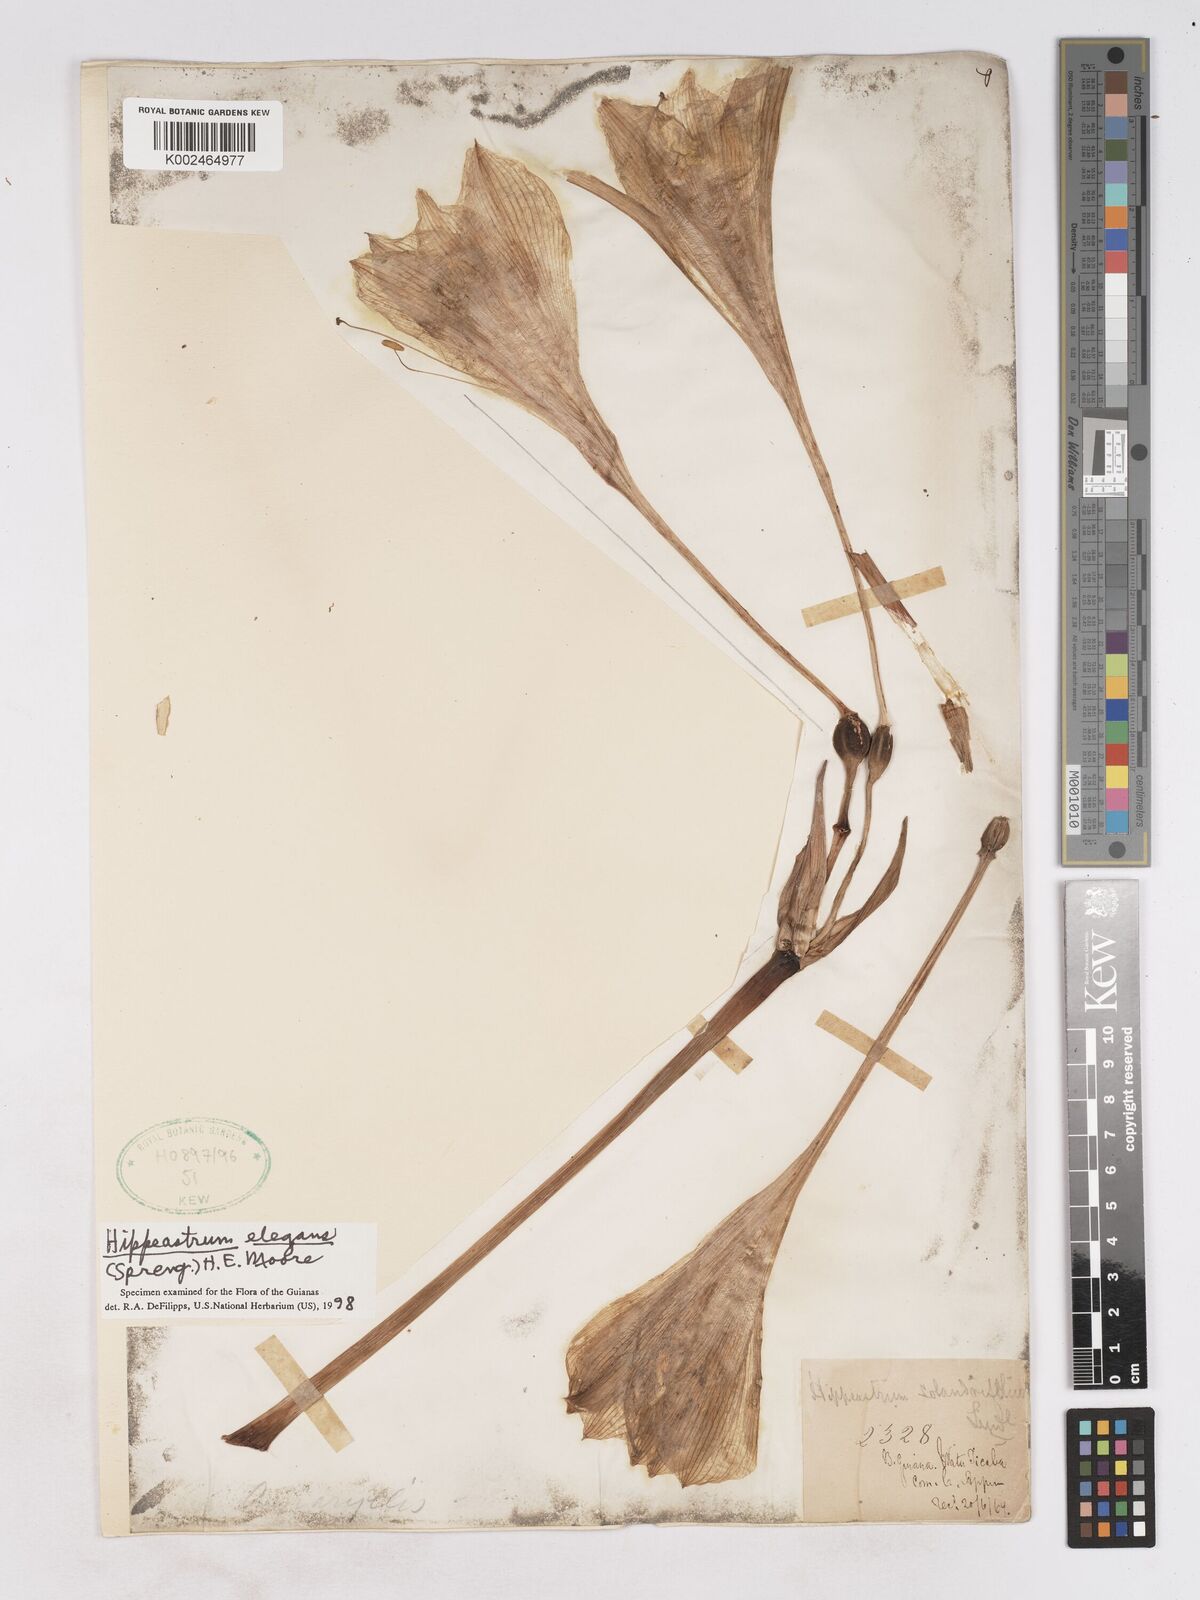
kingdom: Plantae
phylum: Tracheophyta
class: Liliopsida
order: Asparagales
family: Amaryllidaceae
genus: Hippeastrum
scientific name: Hippeastrum elegans
